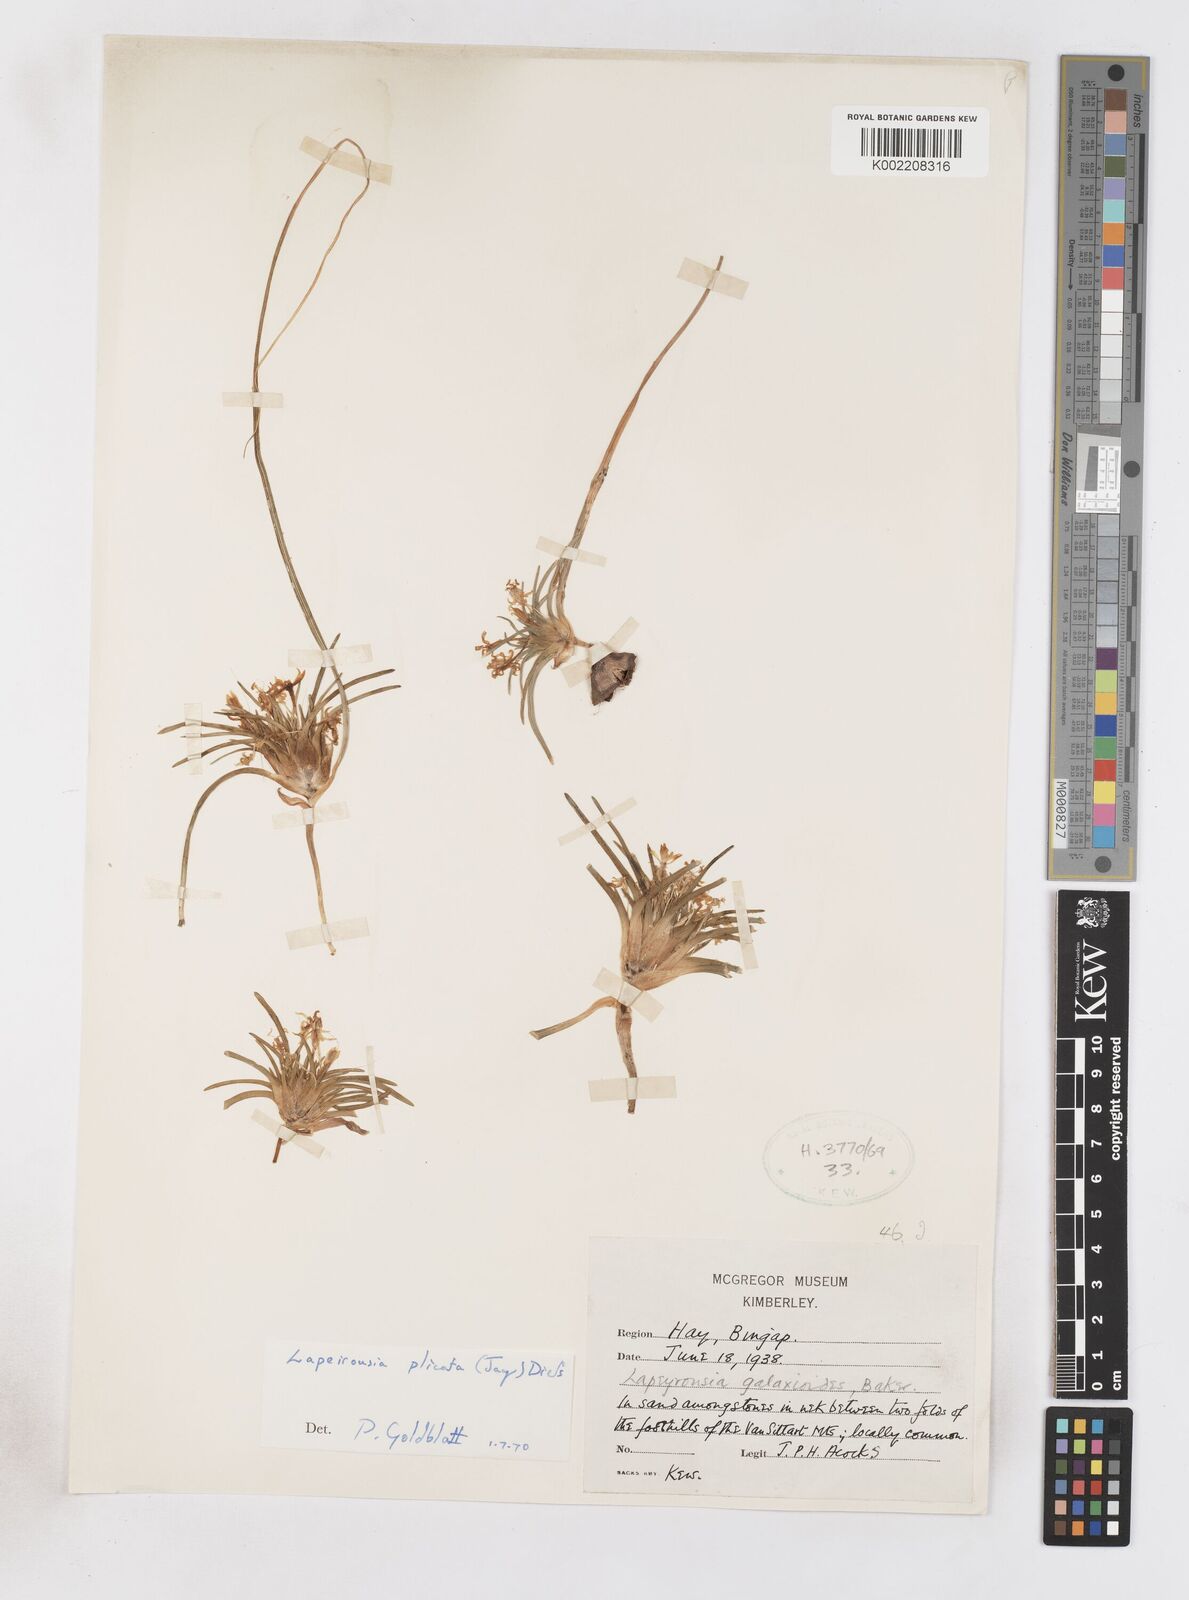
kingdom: Plantae
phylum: Tracheophyta
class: Liliopsida
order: Asparagales
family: Iridaceae
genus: Lapeirousia
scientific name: Lapeirousia plicata
